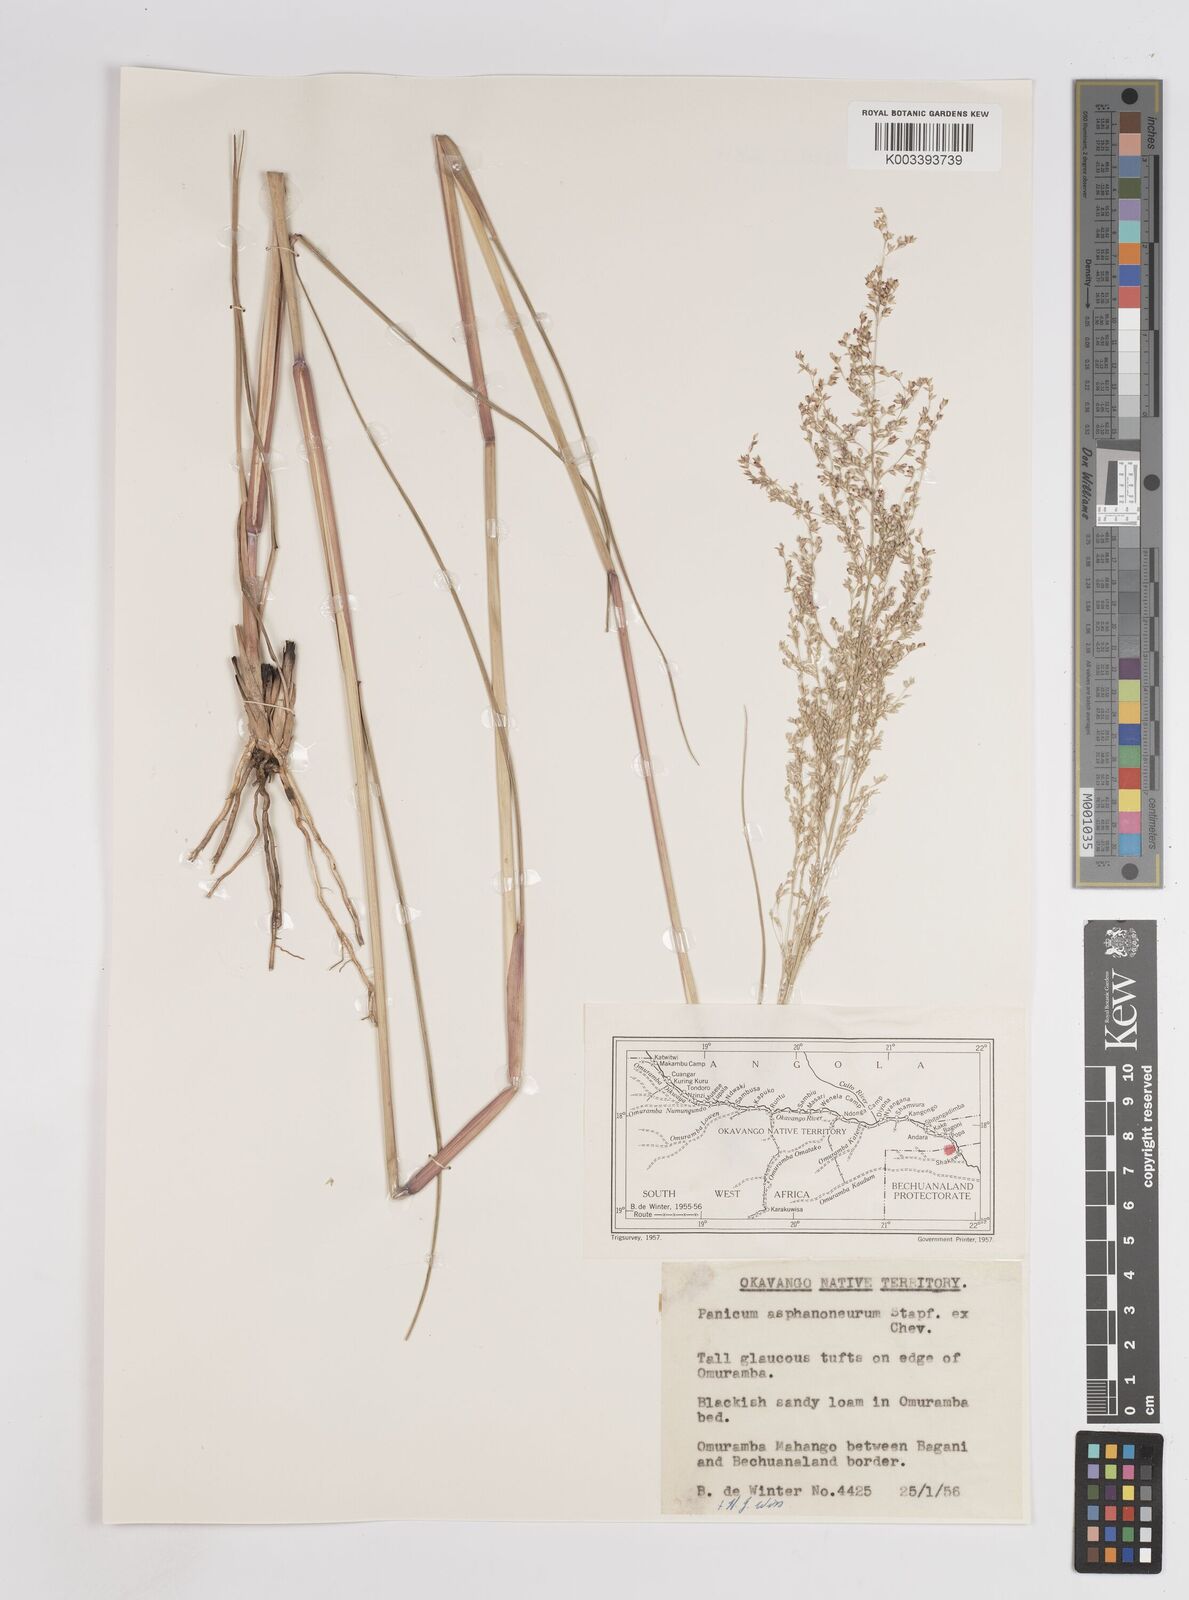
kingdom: Plantae
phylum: Tracheophyta
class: Liliopsida
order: Poales
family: Poaceae
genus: Panicum
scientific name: Panicum fluviicola
